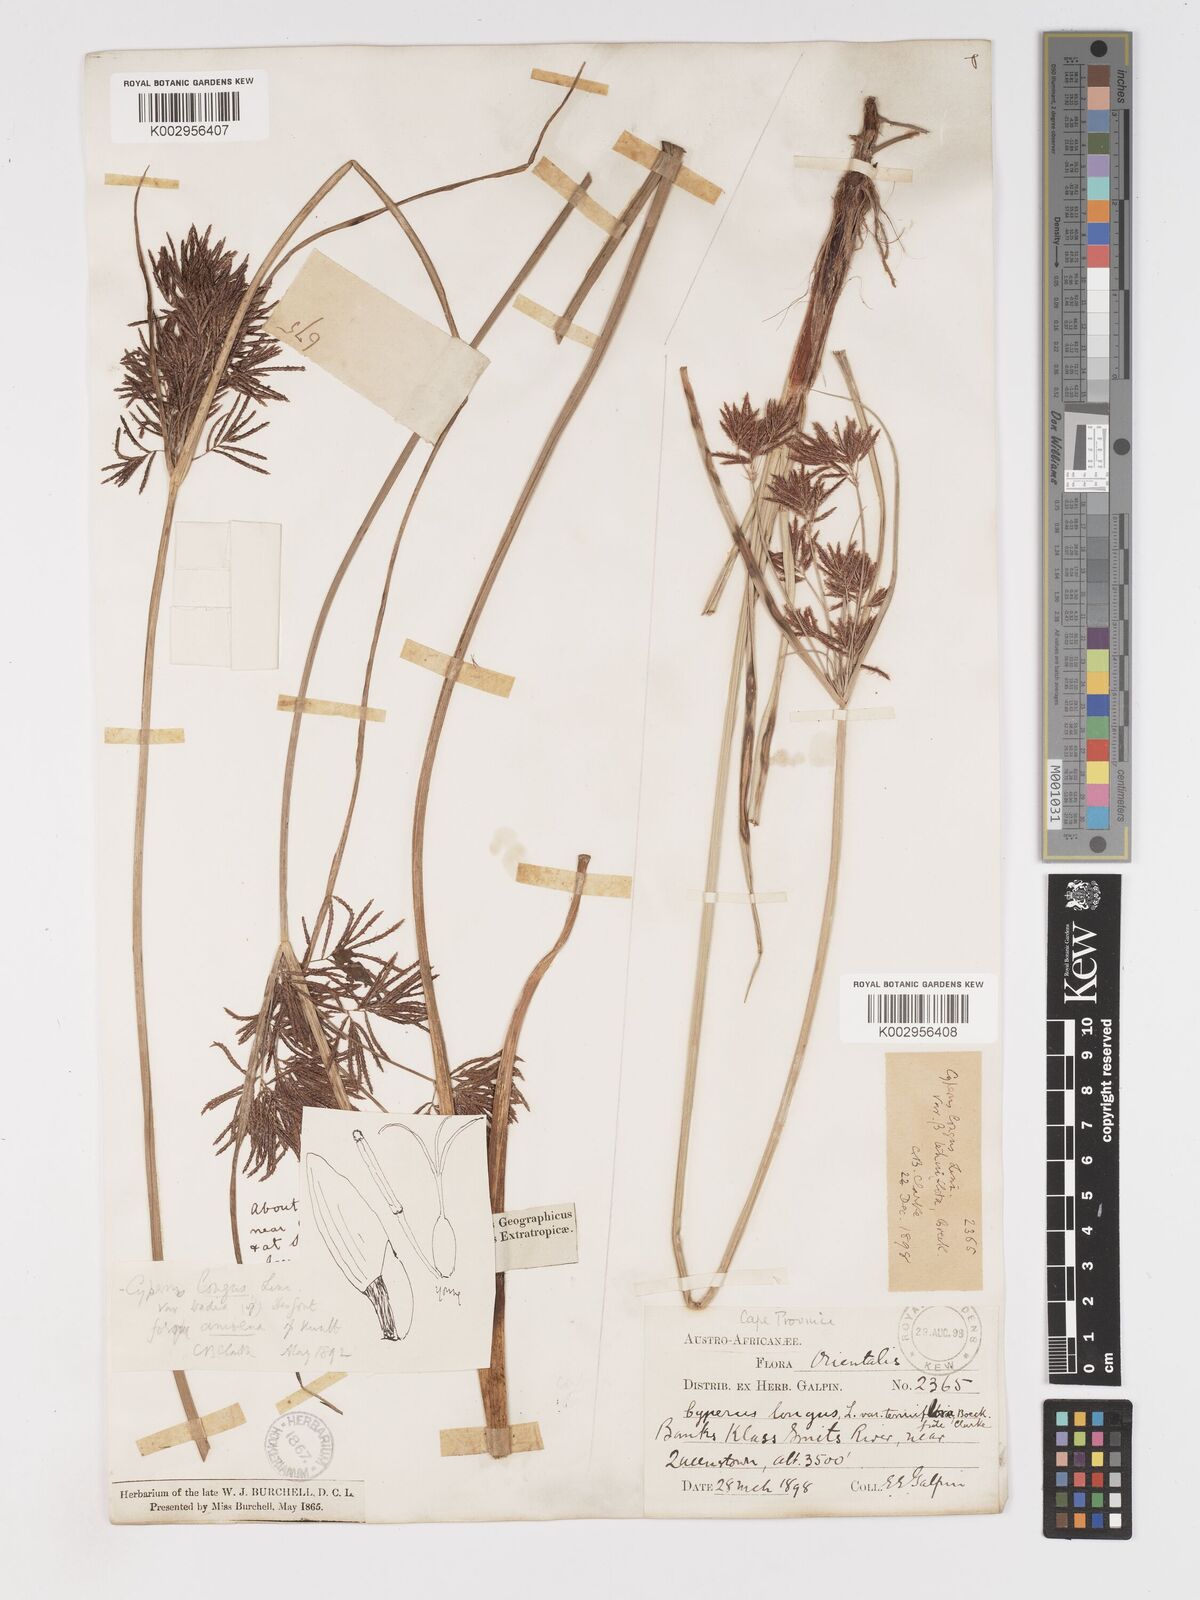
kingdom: Plantae
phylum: Tracheophyta
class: Liliopsida
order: Poales
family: Cyperaceae
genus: Cyperus
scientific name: Cyperus longus
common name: Galingale
